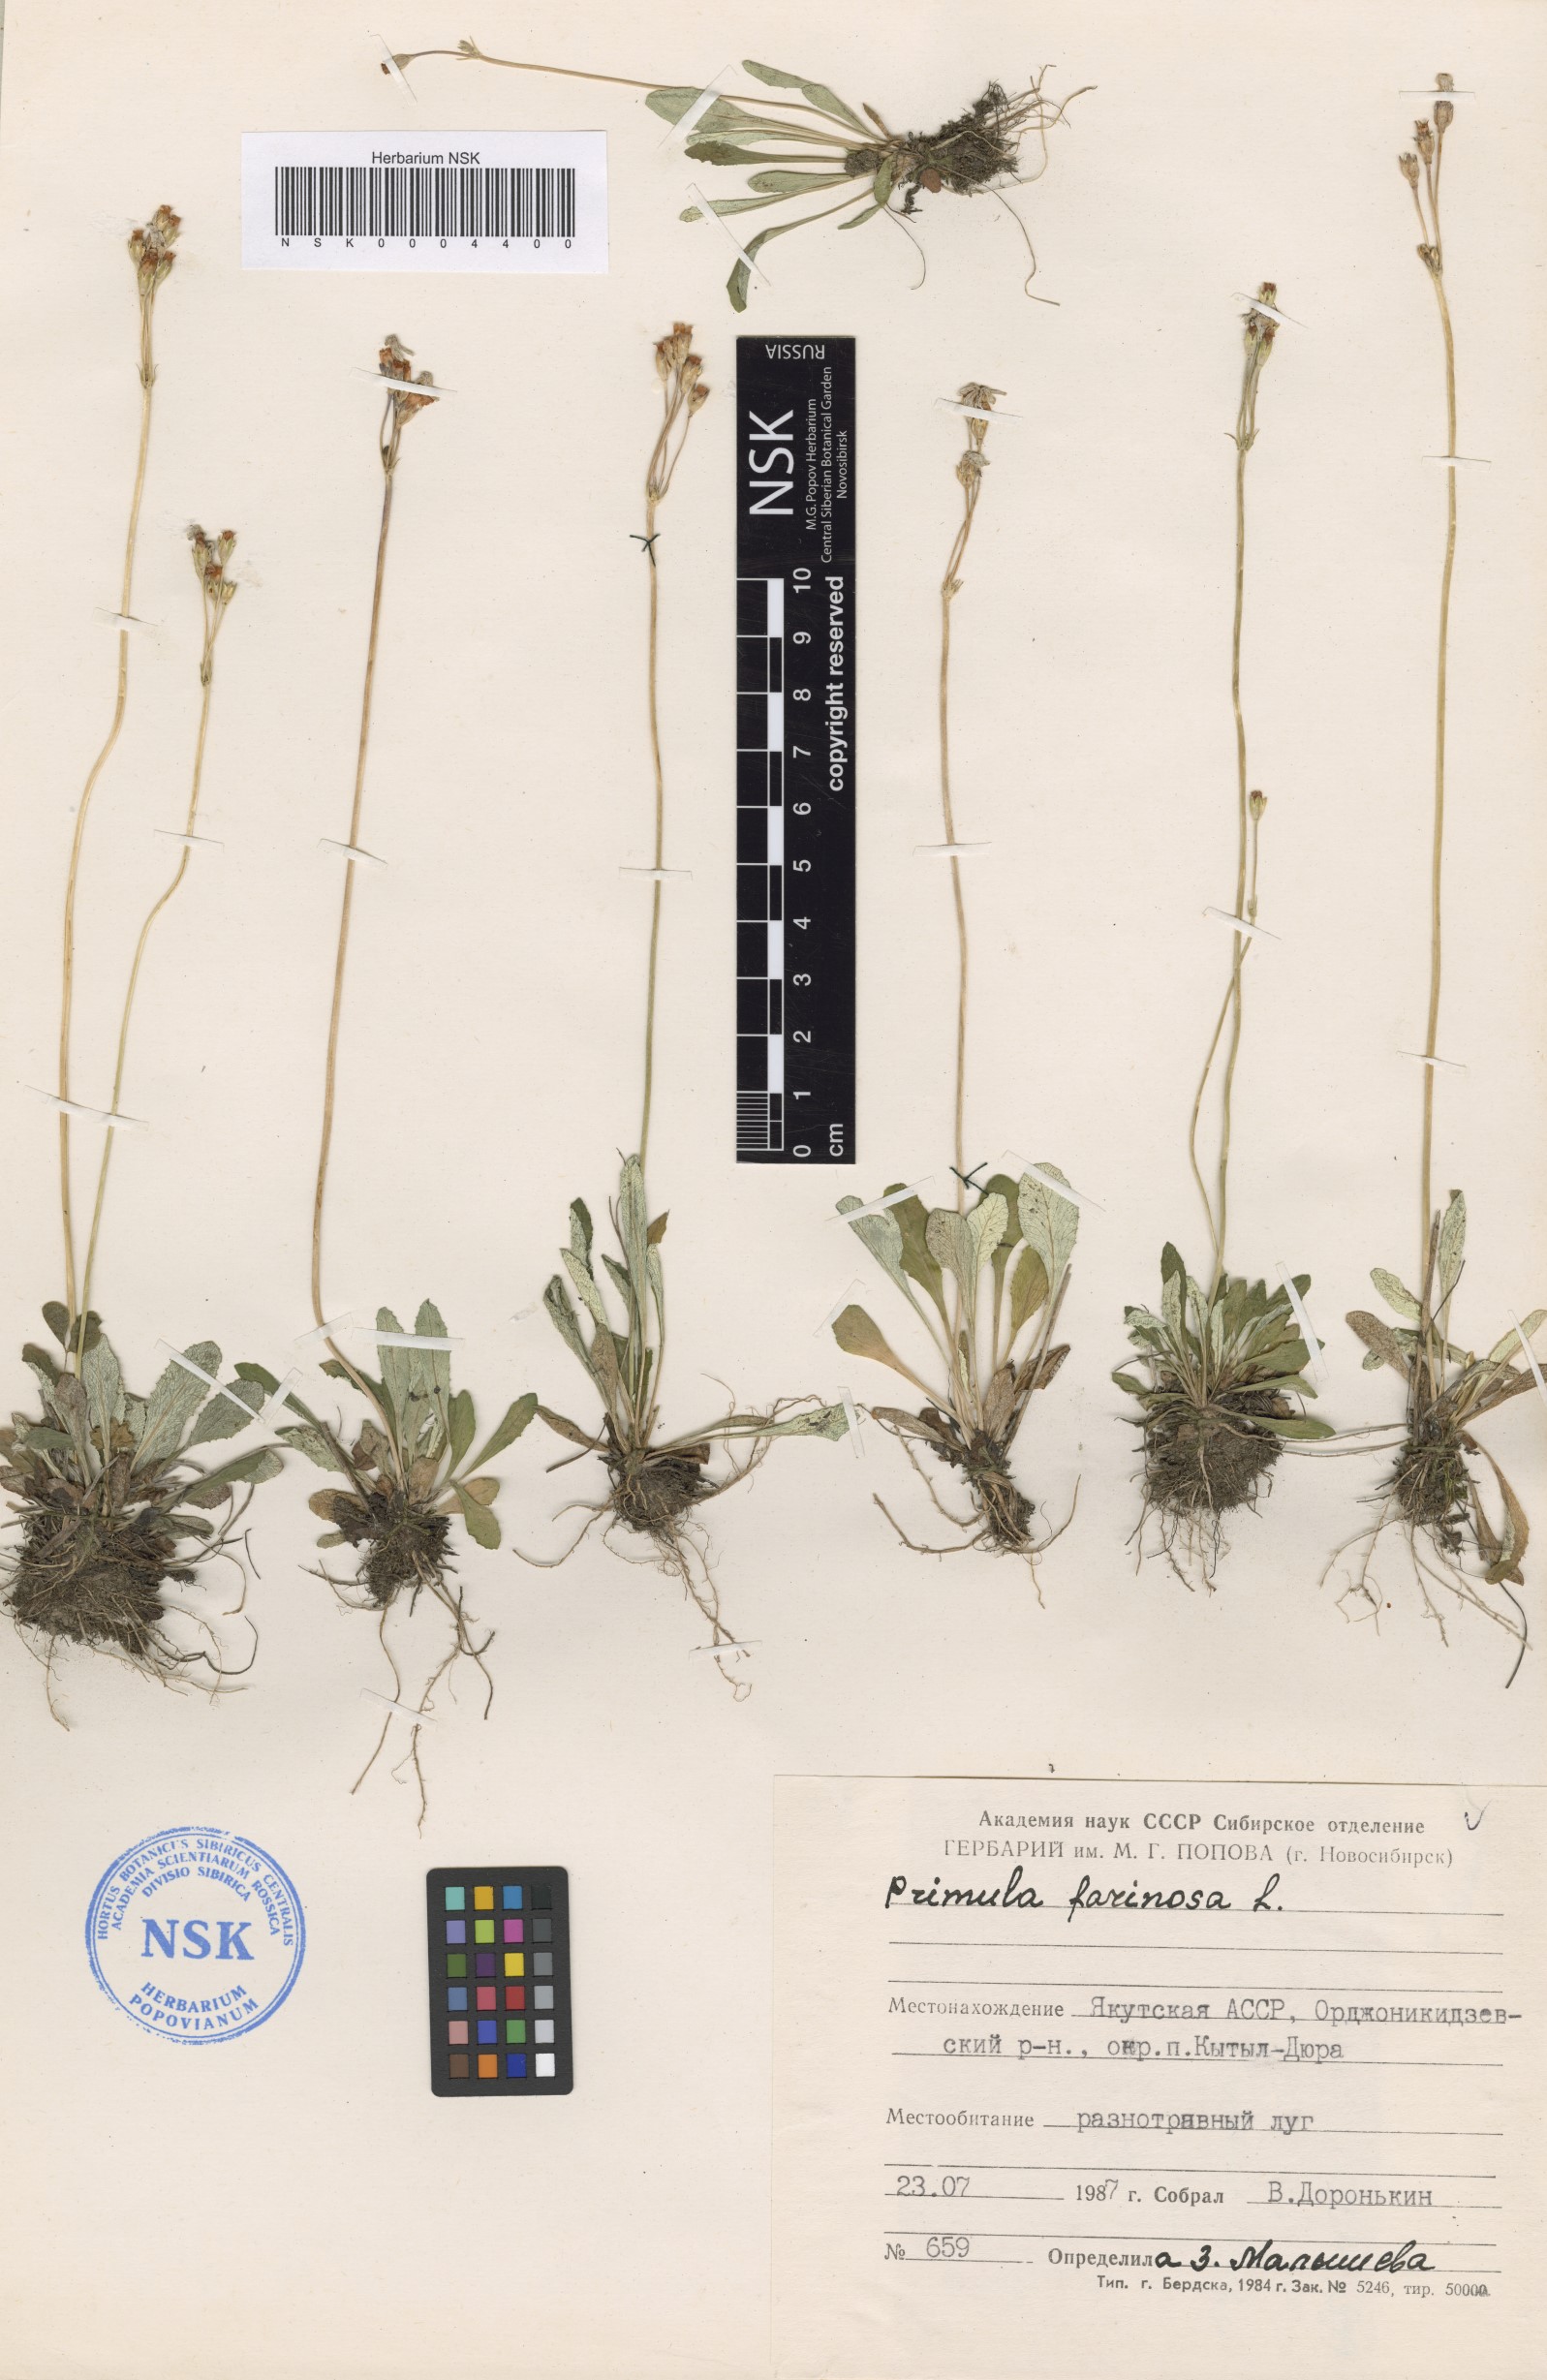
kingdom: Plantae
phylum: Tracheophyta
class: Magnoliopsida
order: Ericales
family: Primulaceae
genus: Primula
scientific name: Primula farinosa
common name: Bird's-eye primrose
